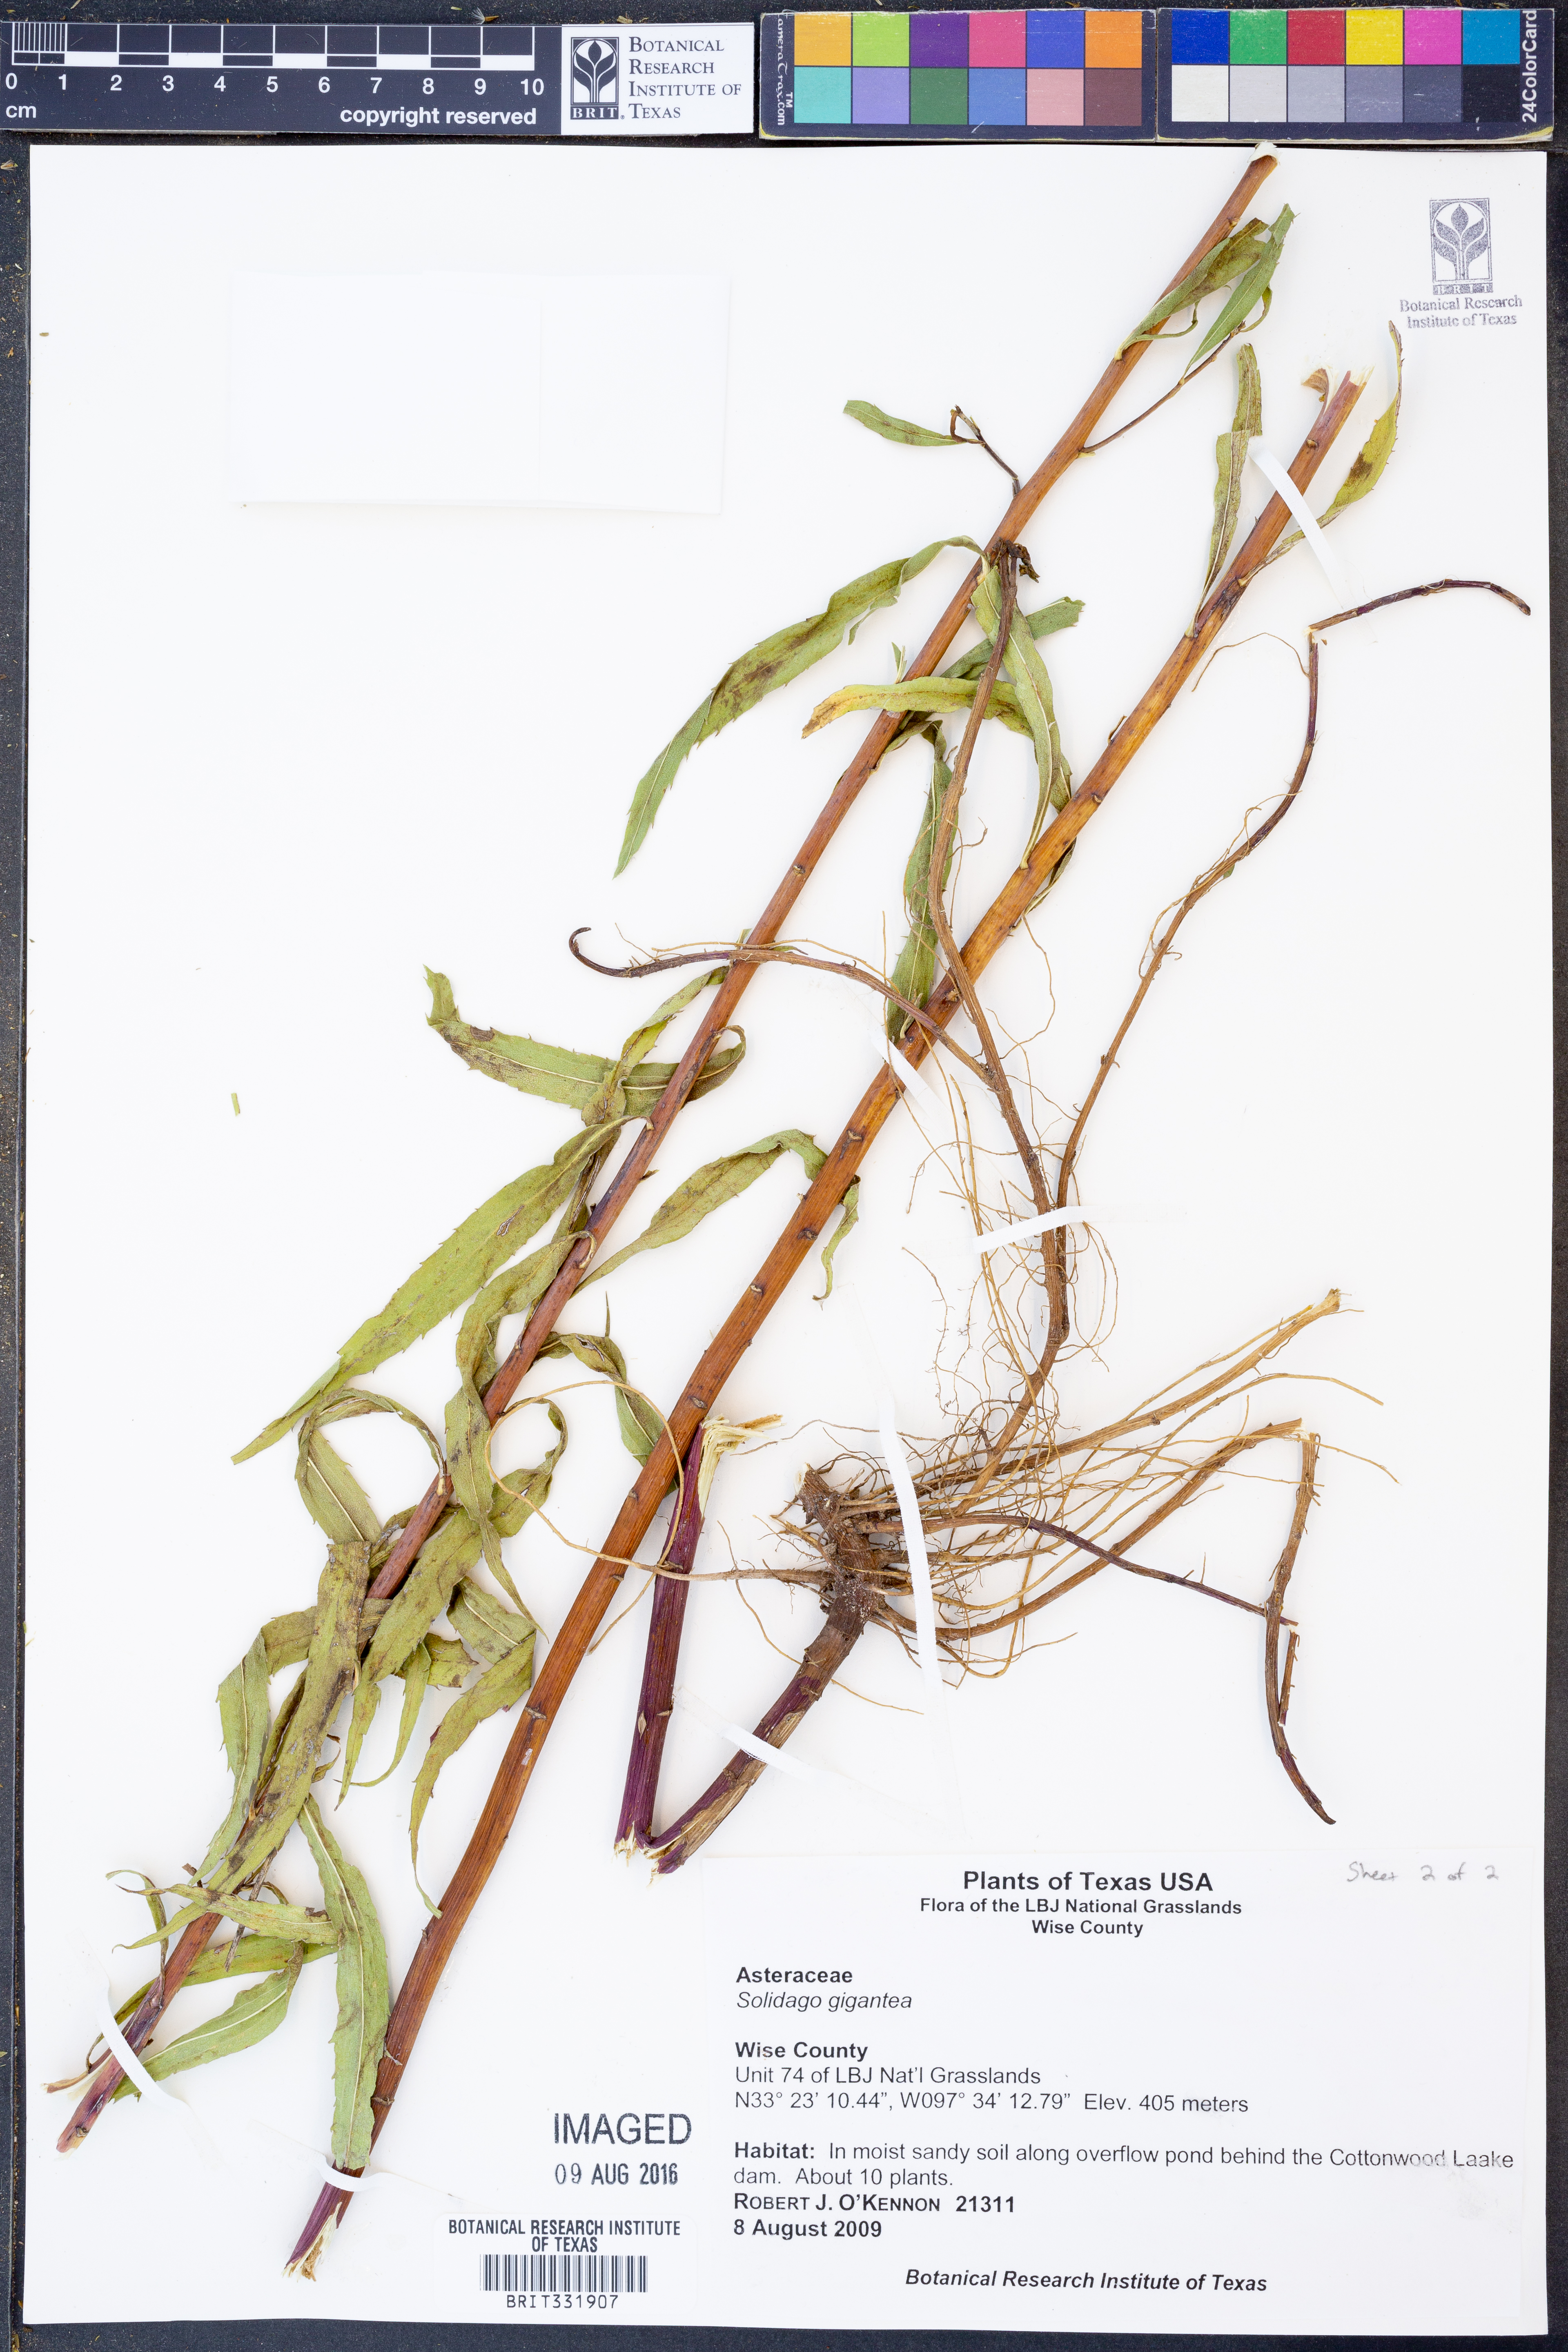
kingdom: Plantae
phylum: Tracheophyta
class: Magnoliopsida
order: Asterales
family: Asteraceae
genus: Solidago
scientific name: Solidago gigantea
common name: Giant goldenrod
